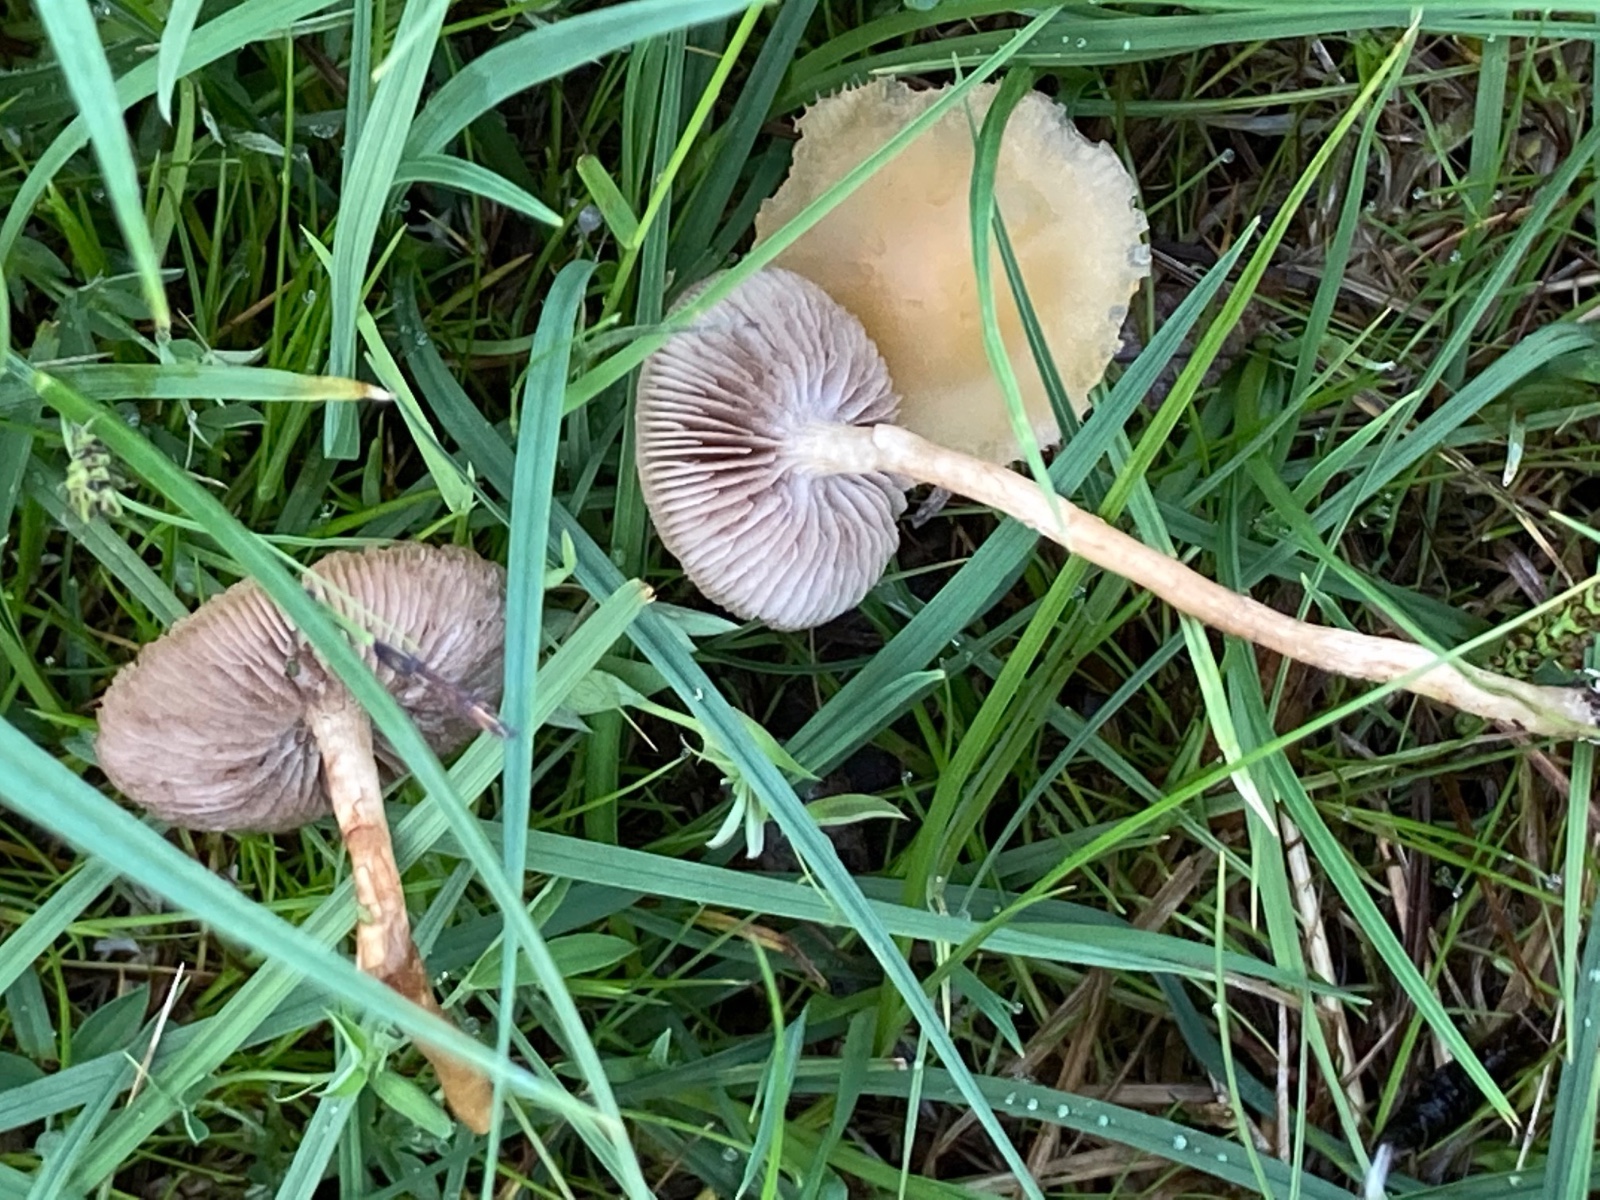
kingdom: Fungi
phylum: Basidiomycota
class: Agaricomycetes
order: Agaricales
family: Strophariaceae
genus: Agrocybe
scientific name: Agrocybe elatella
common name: mose-agerhat
